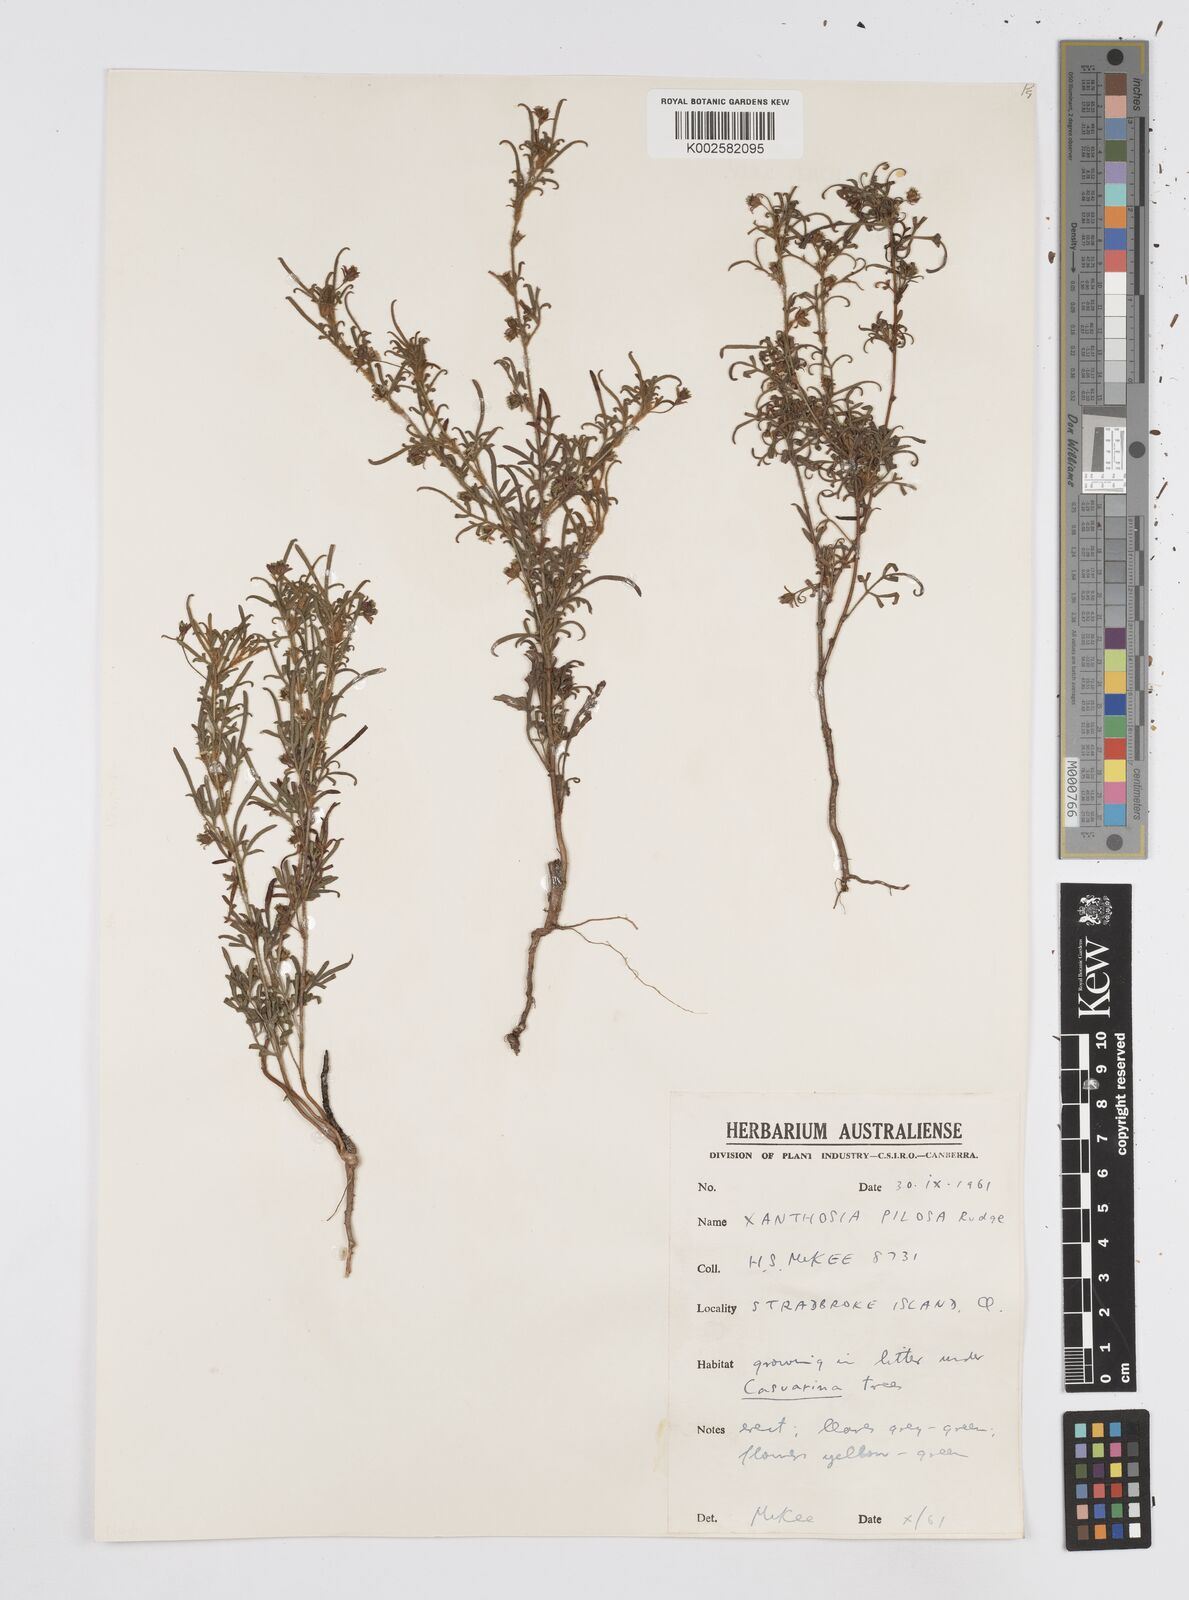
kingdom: Plantae
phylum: Tracheophyta
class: Magnoliopsida
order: Apiales
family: Apiaceae
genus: Xanthosia
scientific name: Xanthosia pilosa
